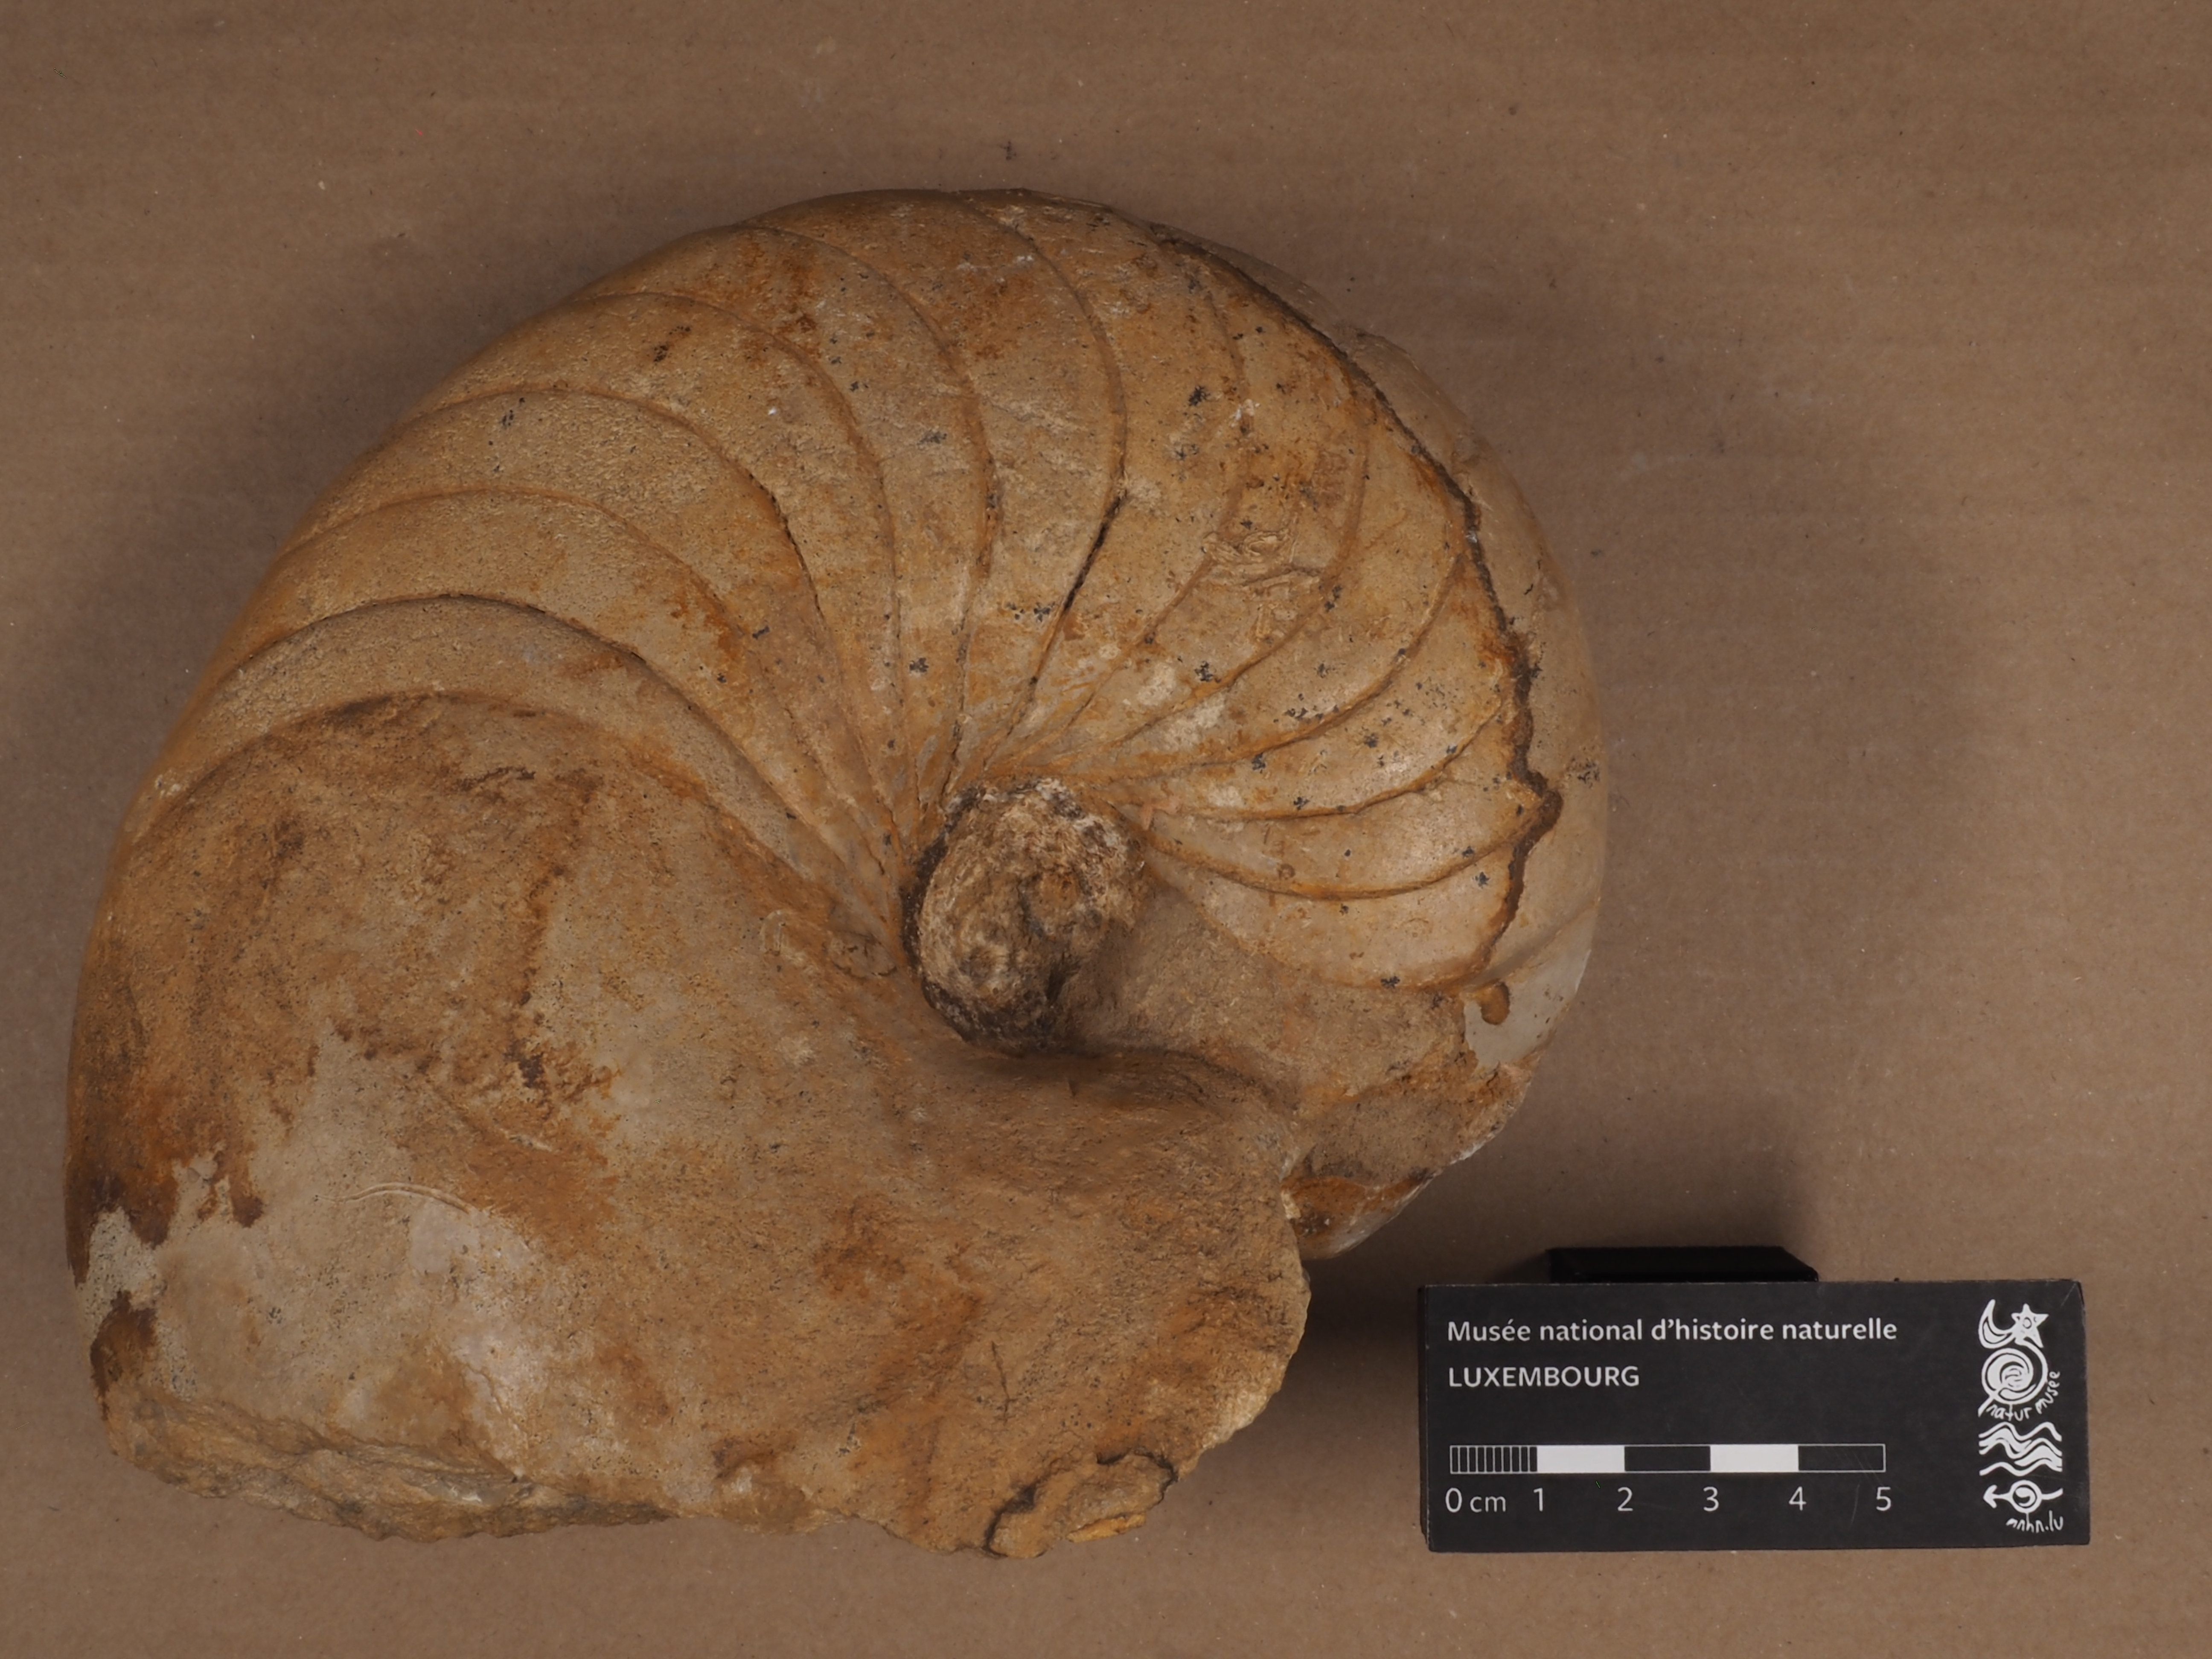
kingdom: Animalia
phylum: Mollusca
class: Cephalopoda
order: Nautilida
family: Nautilidae
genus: Nautilus
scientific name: Nautilus
